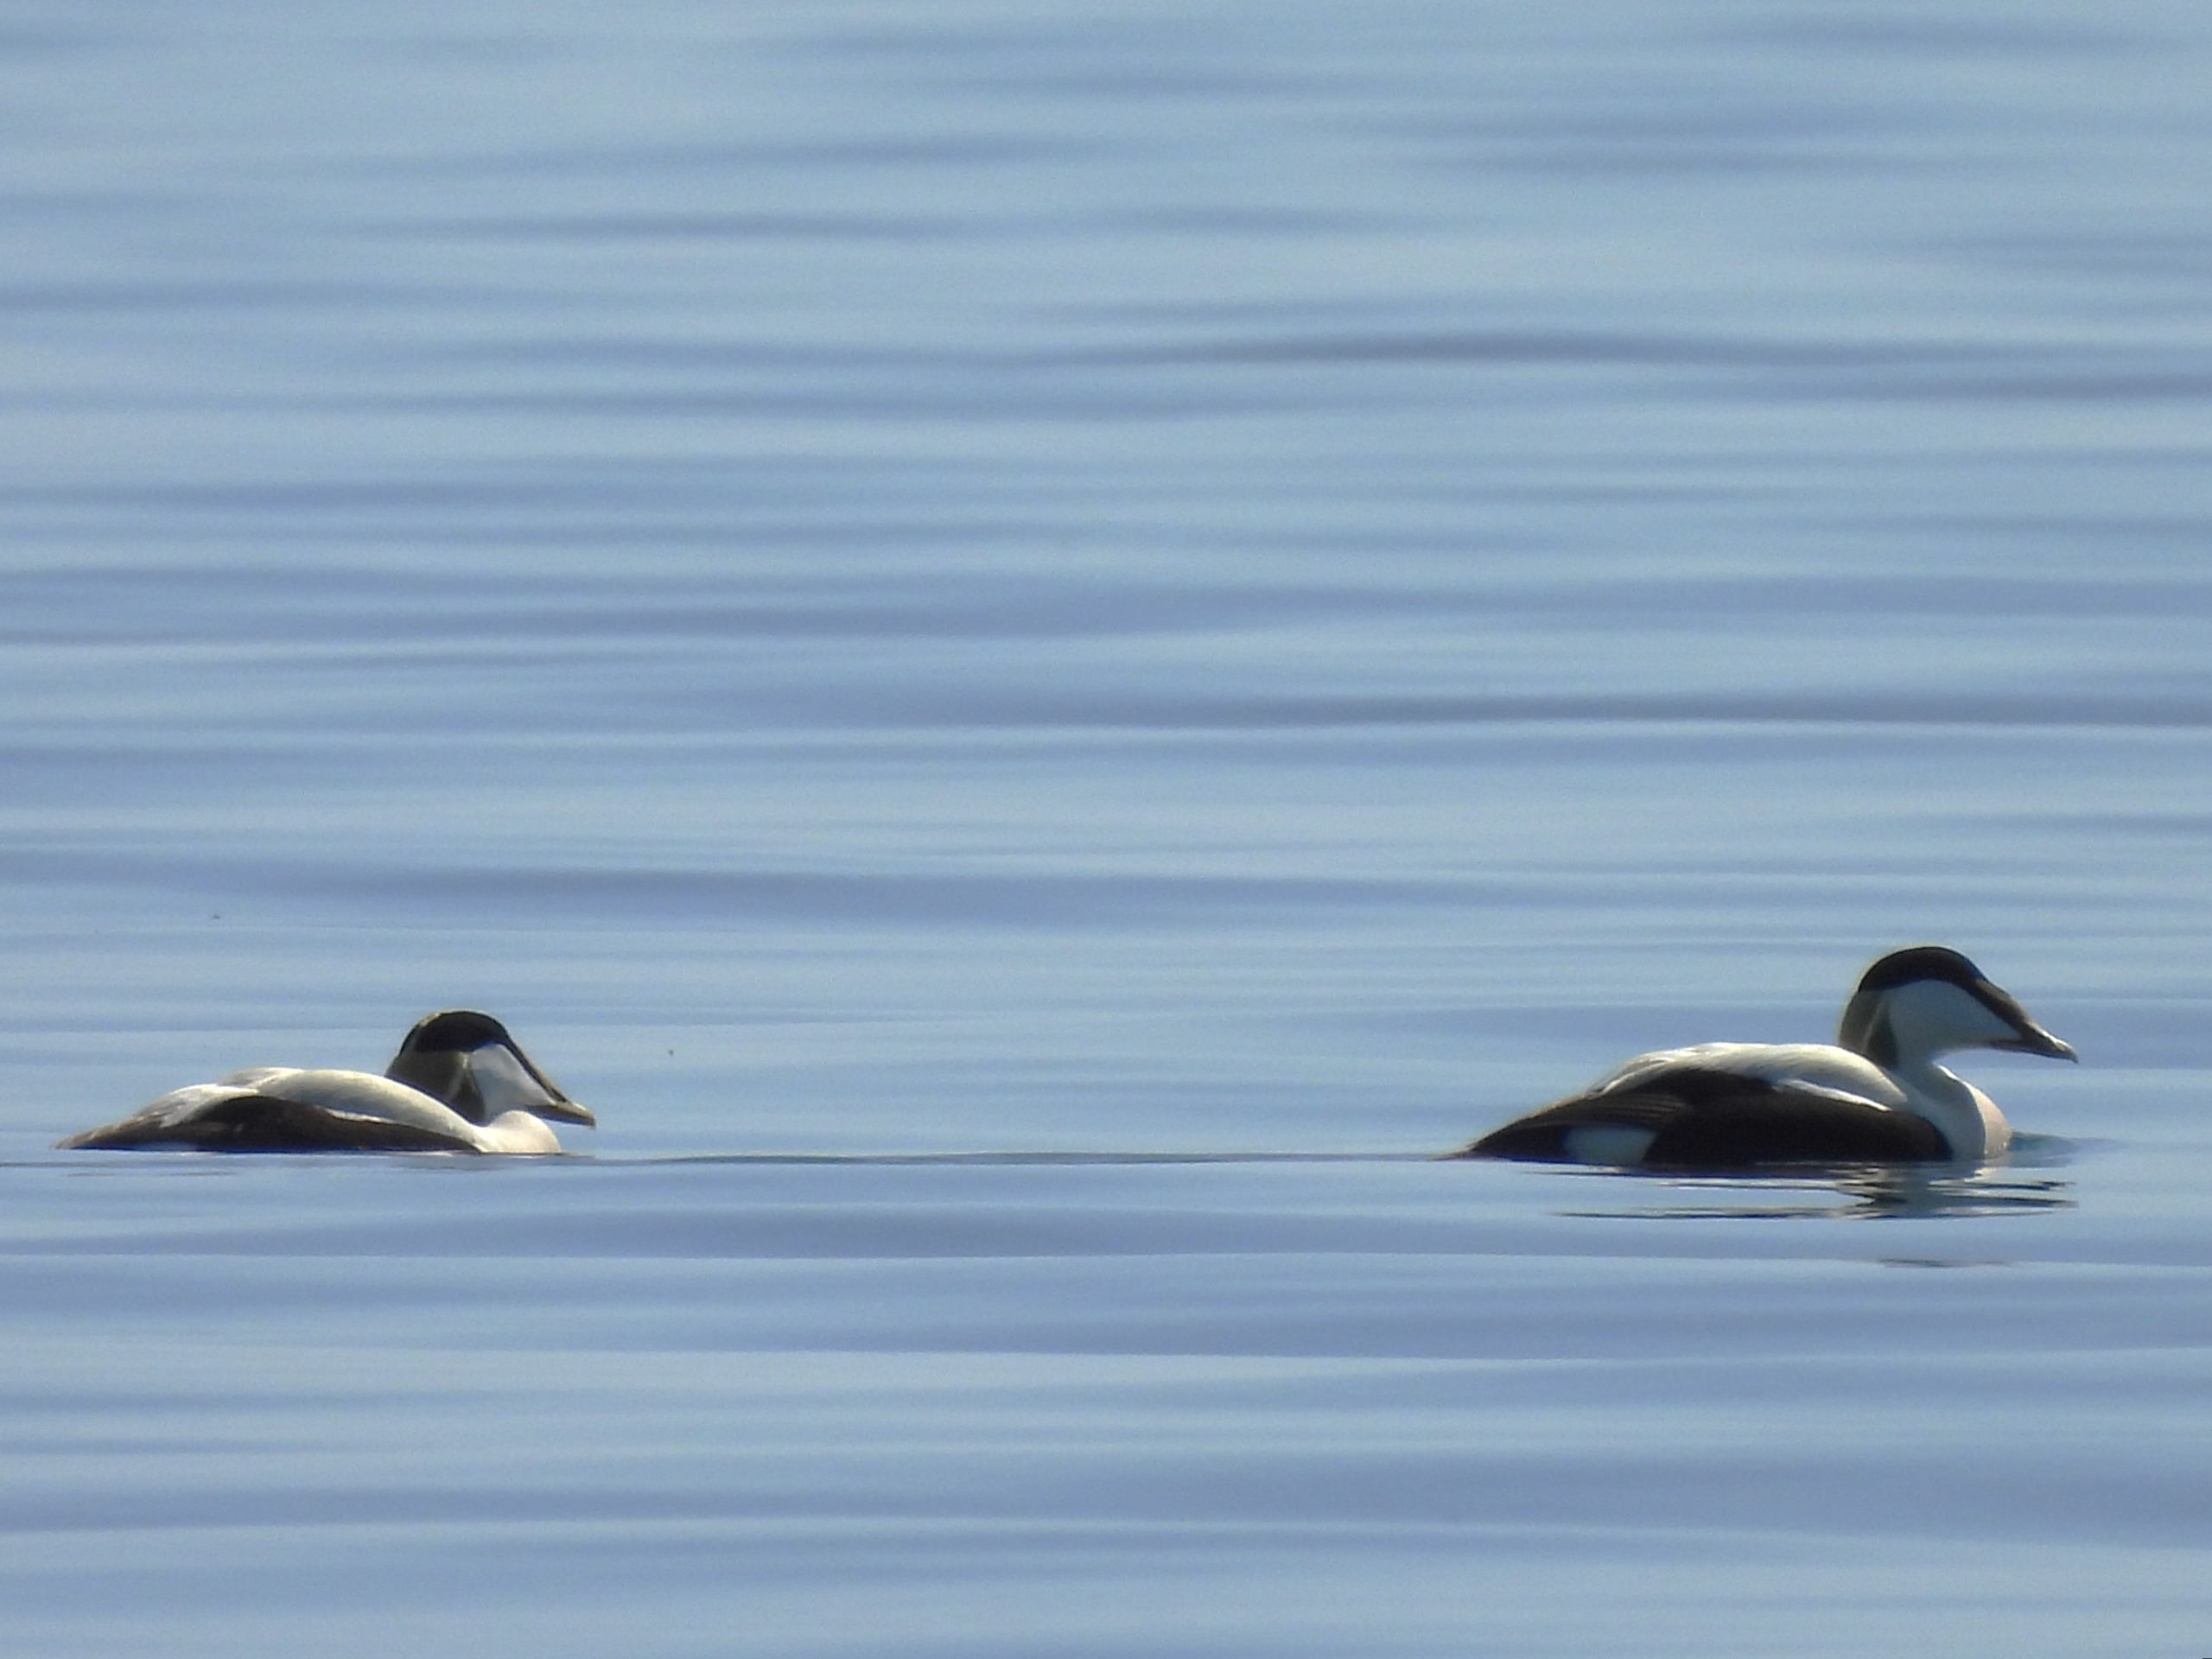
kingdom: Animalia
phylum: Chordata
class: Aves
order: Anseriformes
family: Anatidae
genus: Somateria
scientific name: Somateria mollissima
